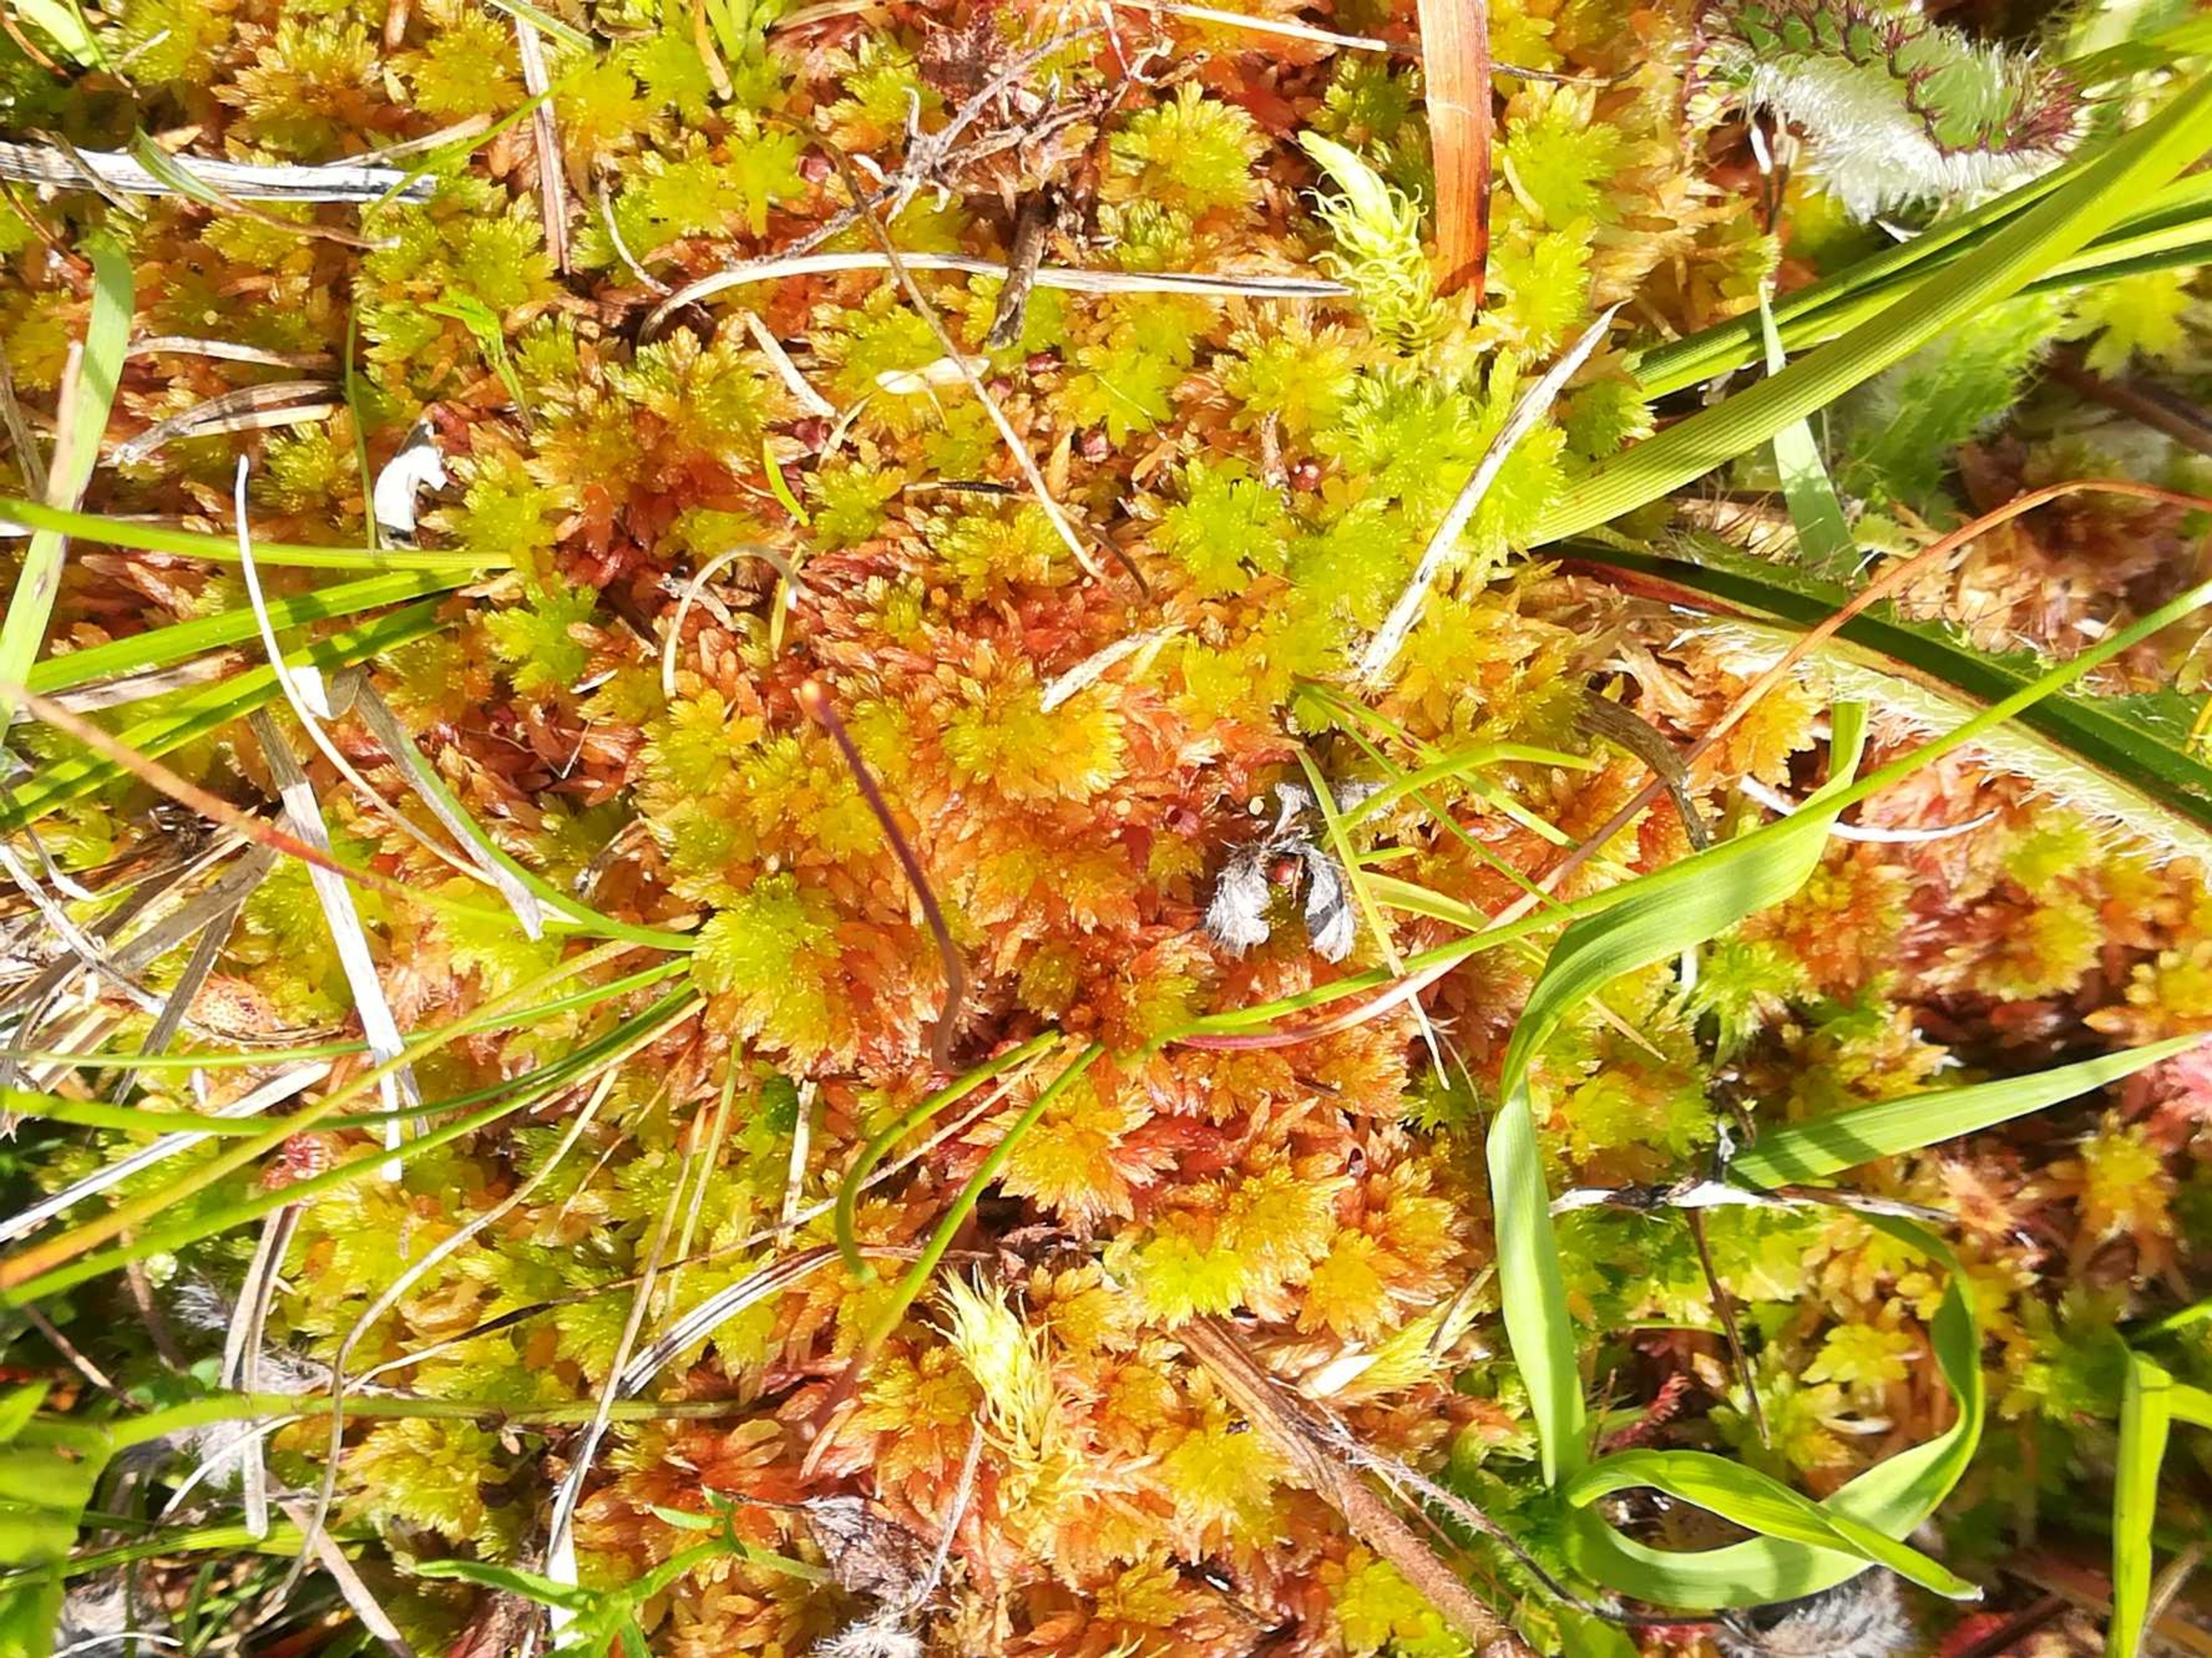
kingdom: Plantae
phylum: Bryophyta
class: Sphagnopsida
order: Sphagnales
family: Sphagnaceae
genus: Sphagnum
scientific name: Sphagnum subnitens
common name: Fedtet tørvemos
